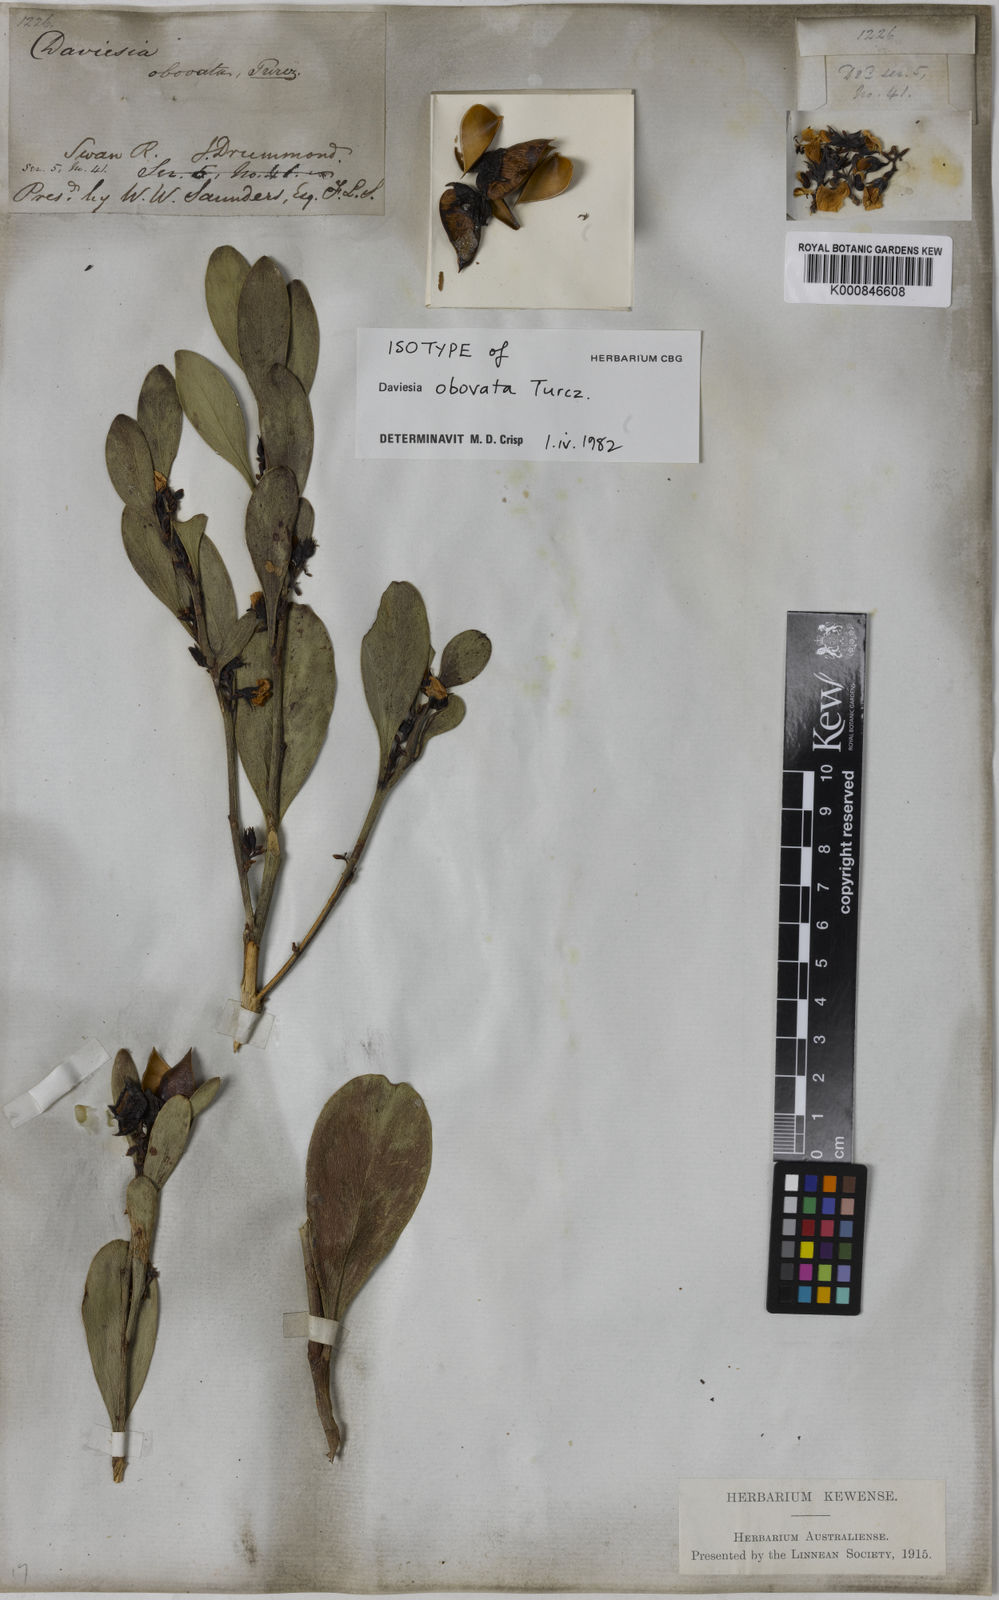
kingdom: Plantae
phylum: Tracheophyta
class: Magnoliopsida
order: Fabales
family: Fabaceae
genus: Daviesia
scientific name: Daviesia obovata
